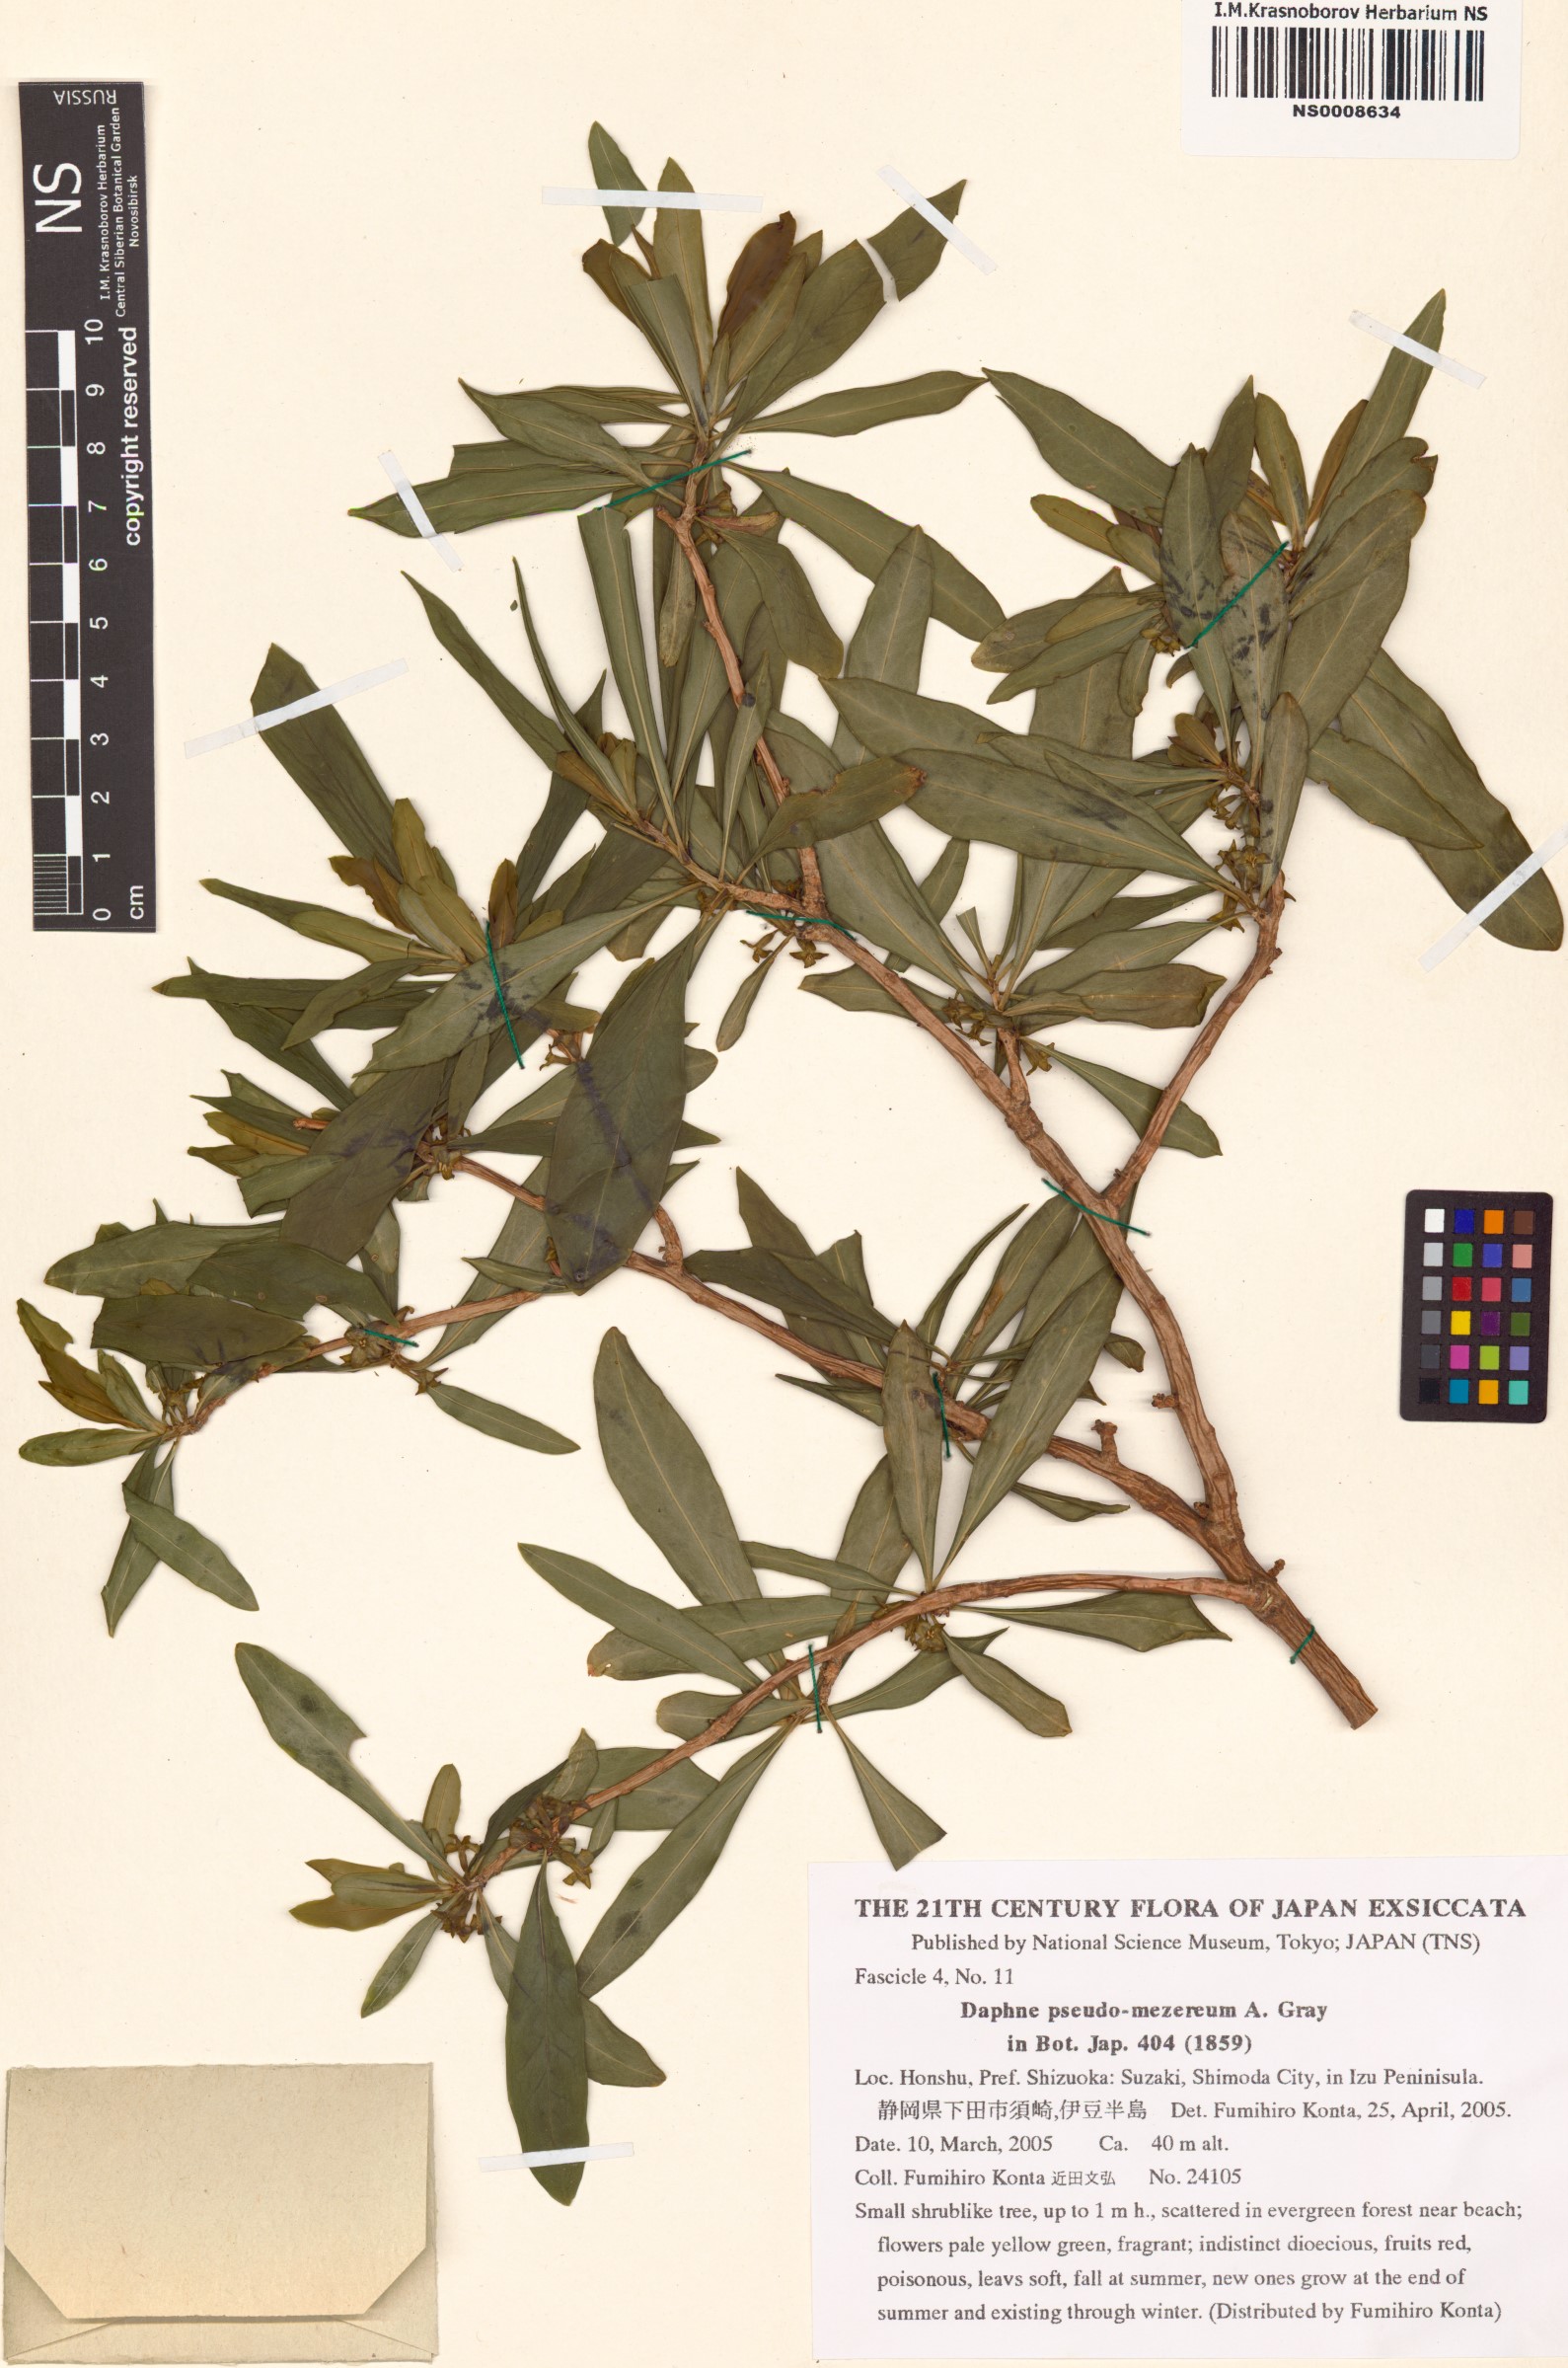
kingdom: Plantae
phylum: Tracheophyta
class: Magnoliopsida
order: Malvales
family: Thymelaeaceae
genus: Daphne
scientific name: Daphne pseudomezereum
